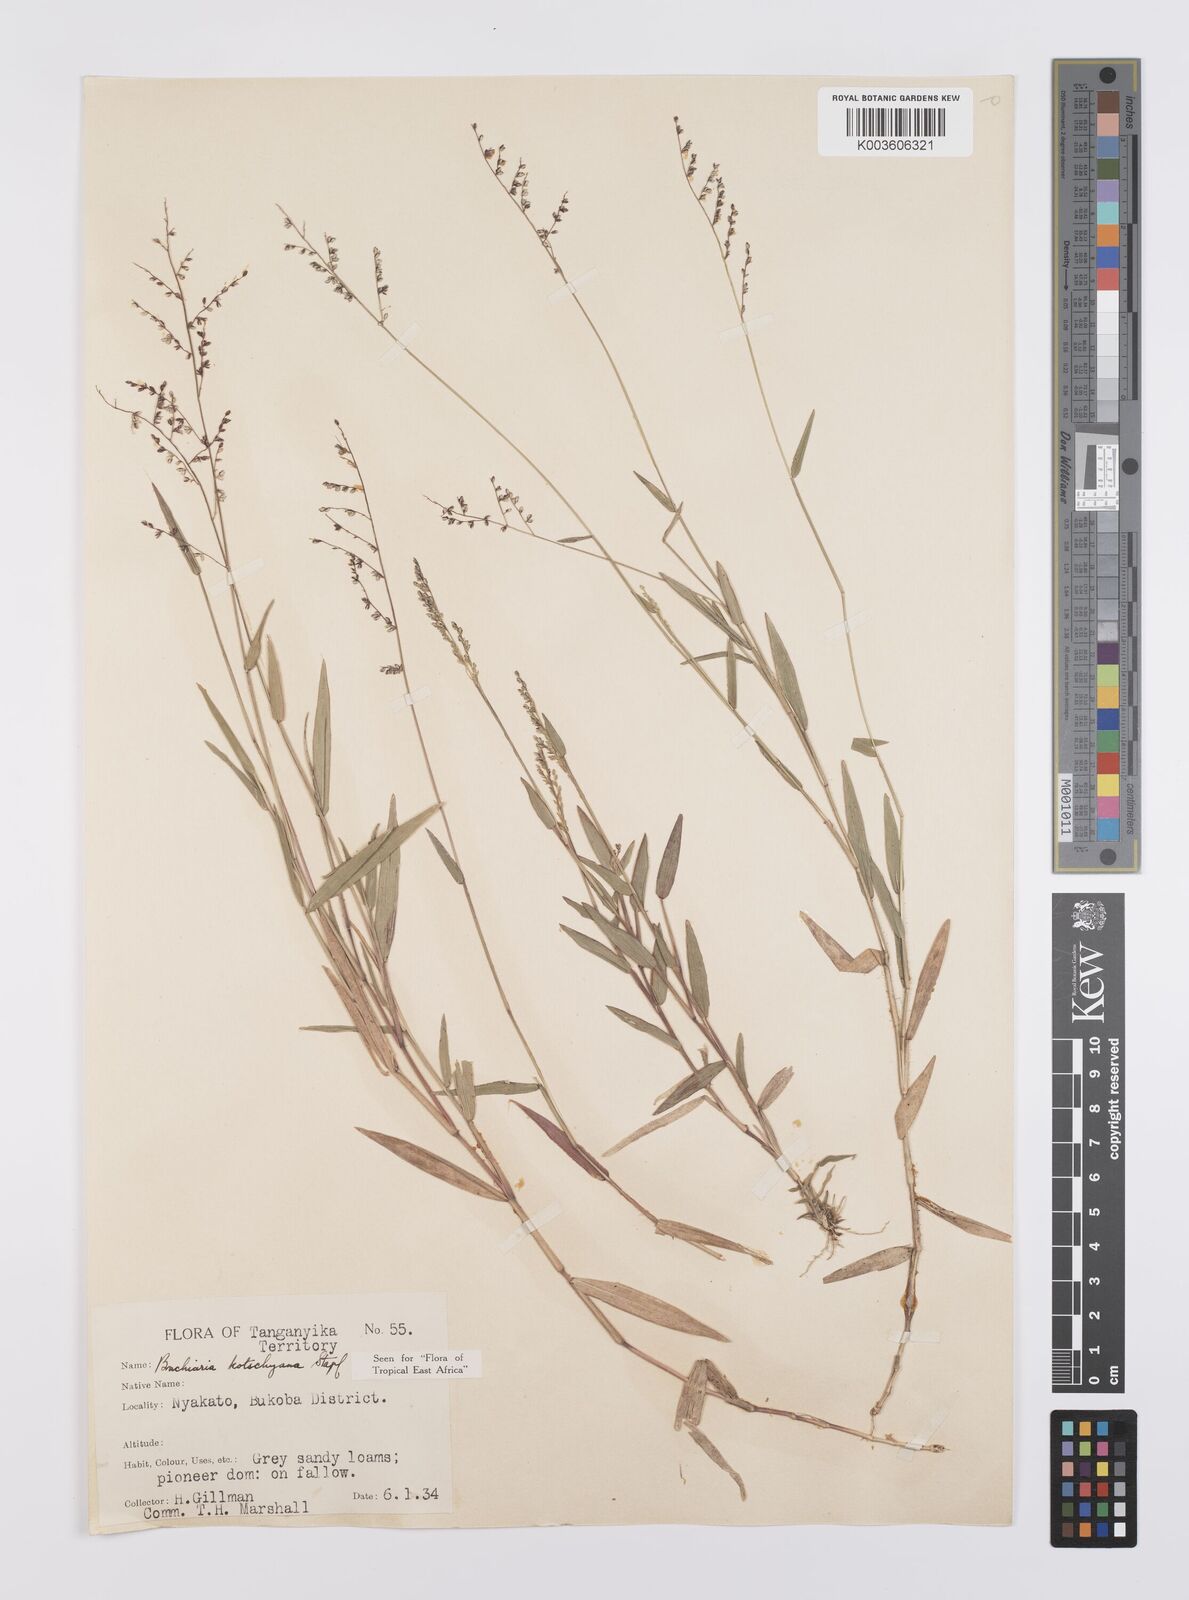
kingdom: Plantae
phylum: Tracheophyta
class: Liliopsida
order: Poales
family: Poaceae
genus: Urochloa
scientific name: Urochloa comata
